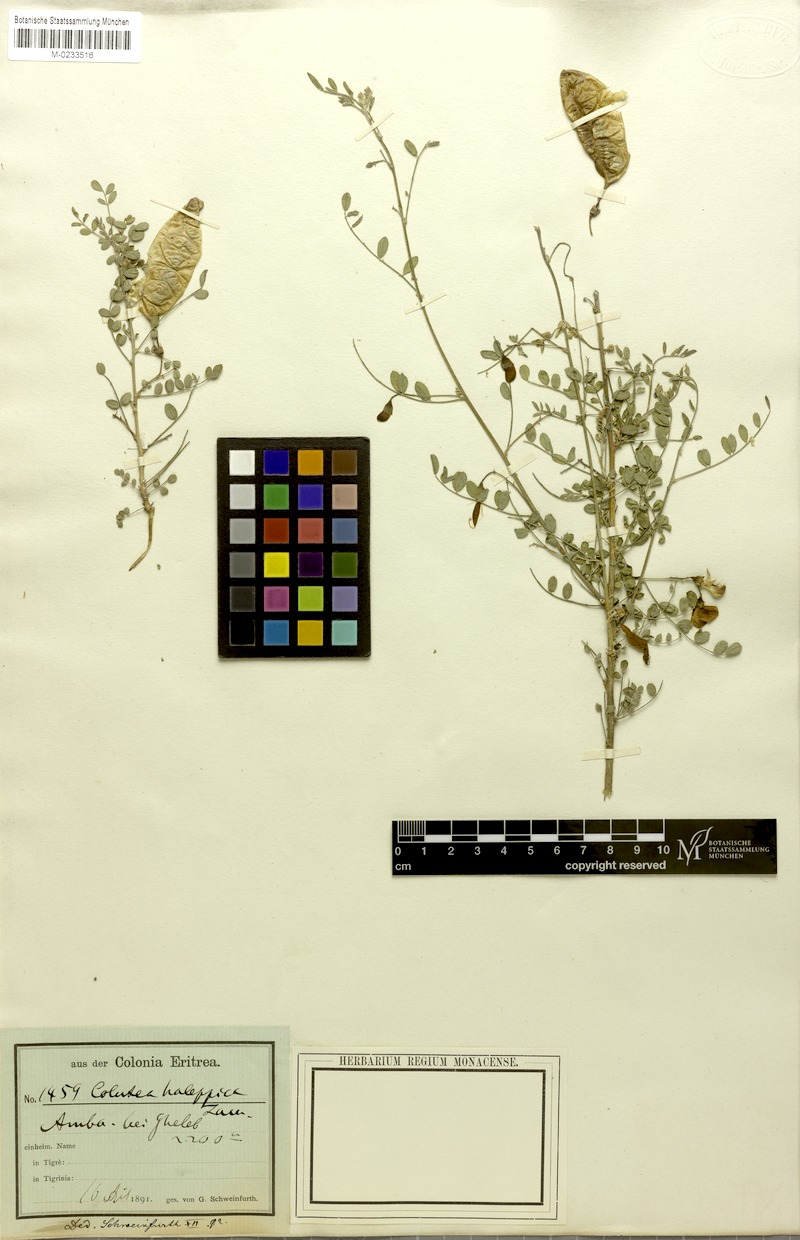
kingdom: Plantae
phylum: Tracheophyta
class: Magnoliopsida
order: Fabales
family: Fabaceae
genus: Colutea
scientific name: Colutea halipica
